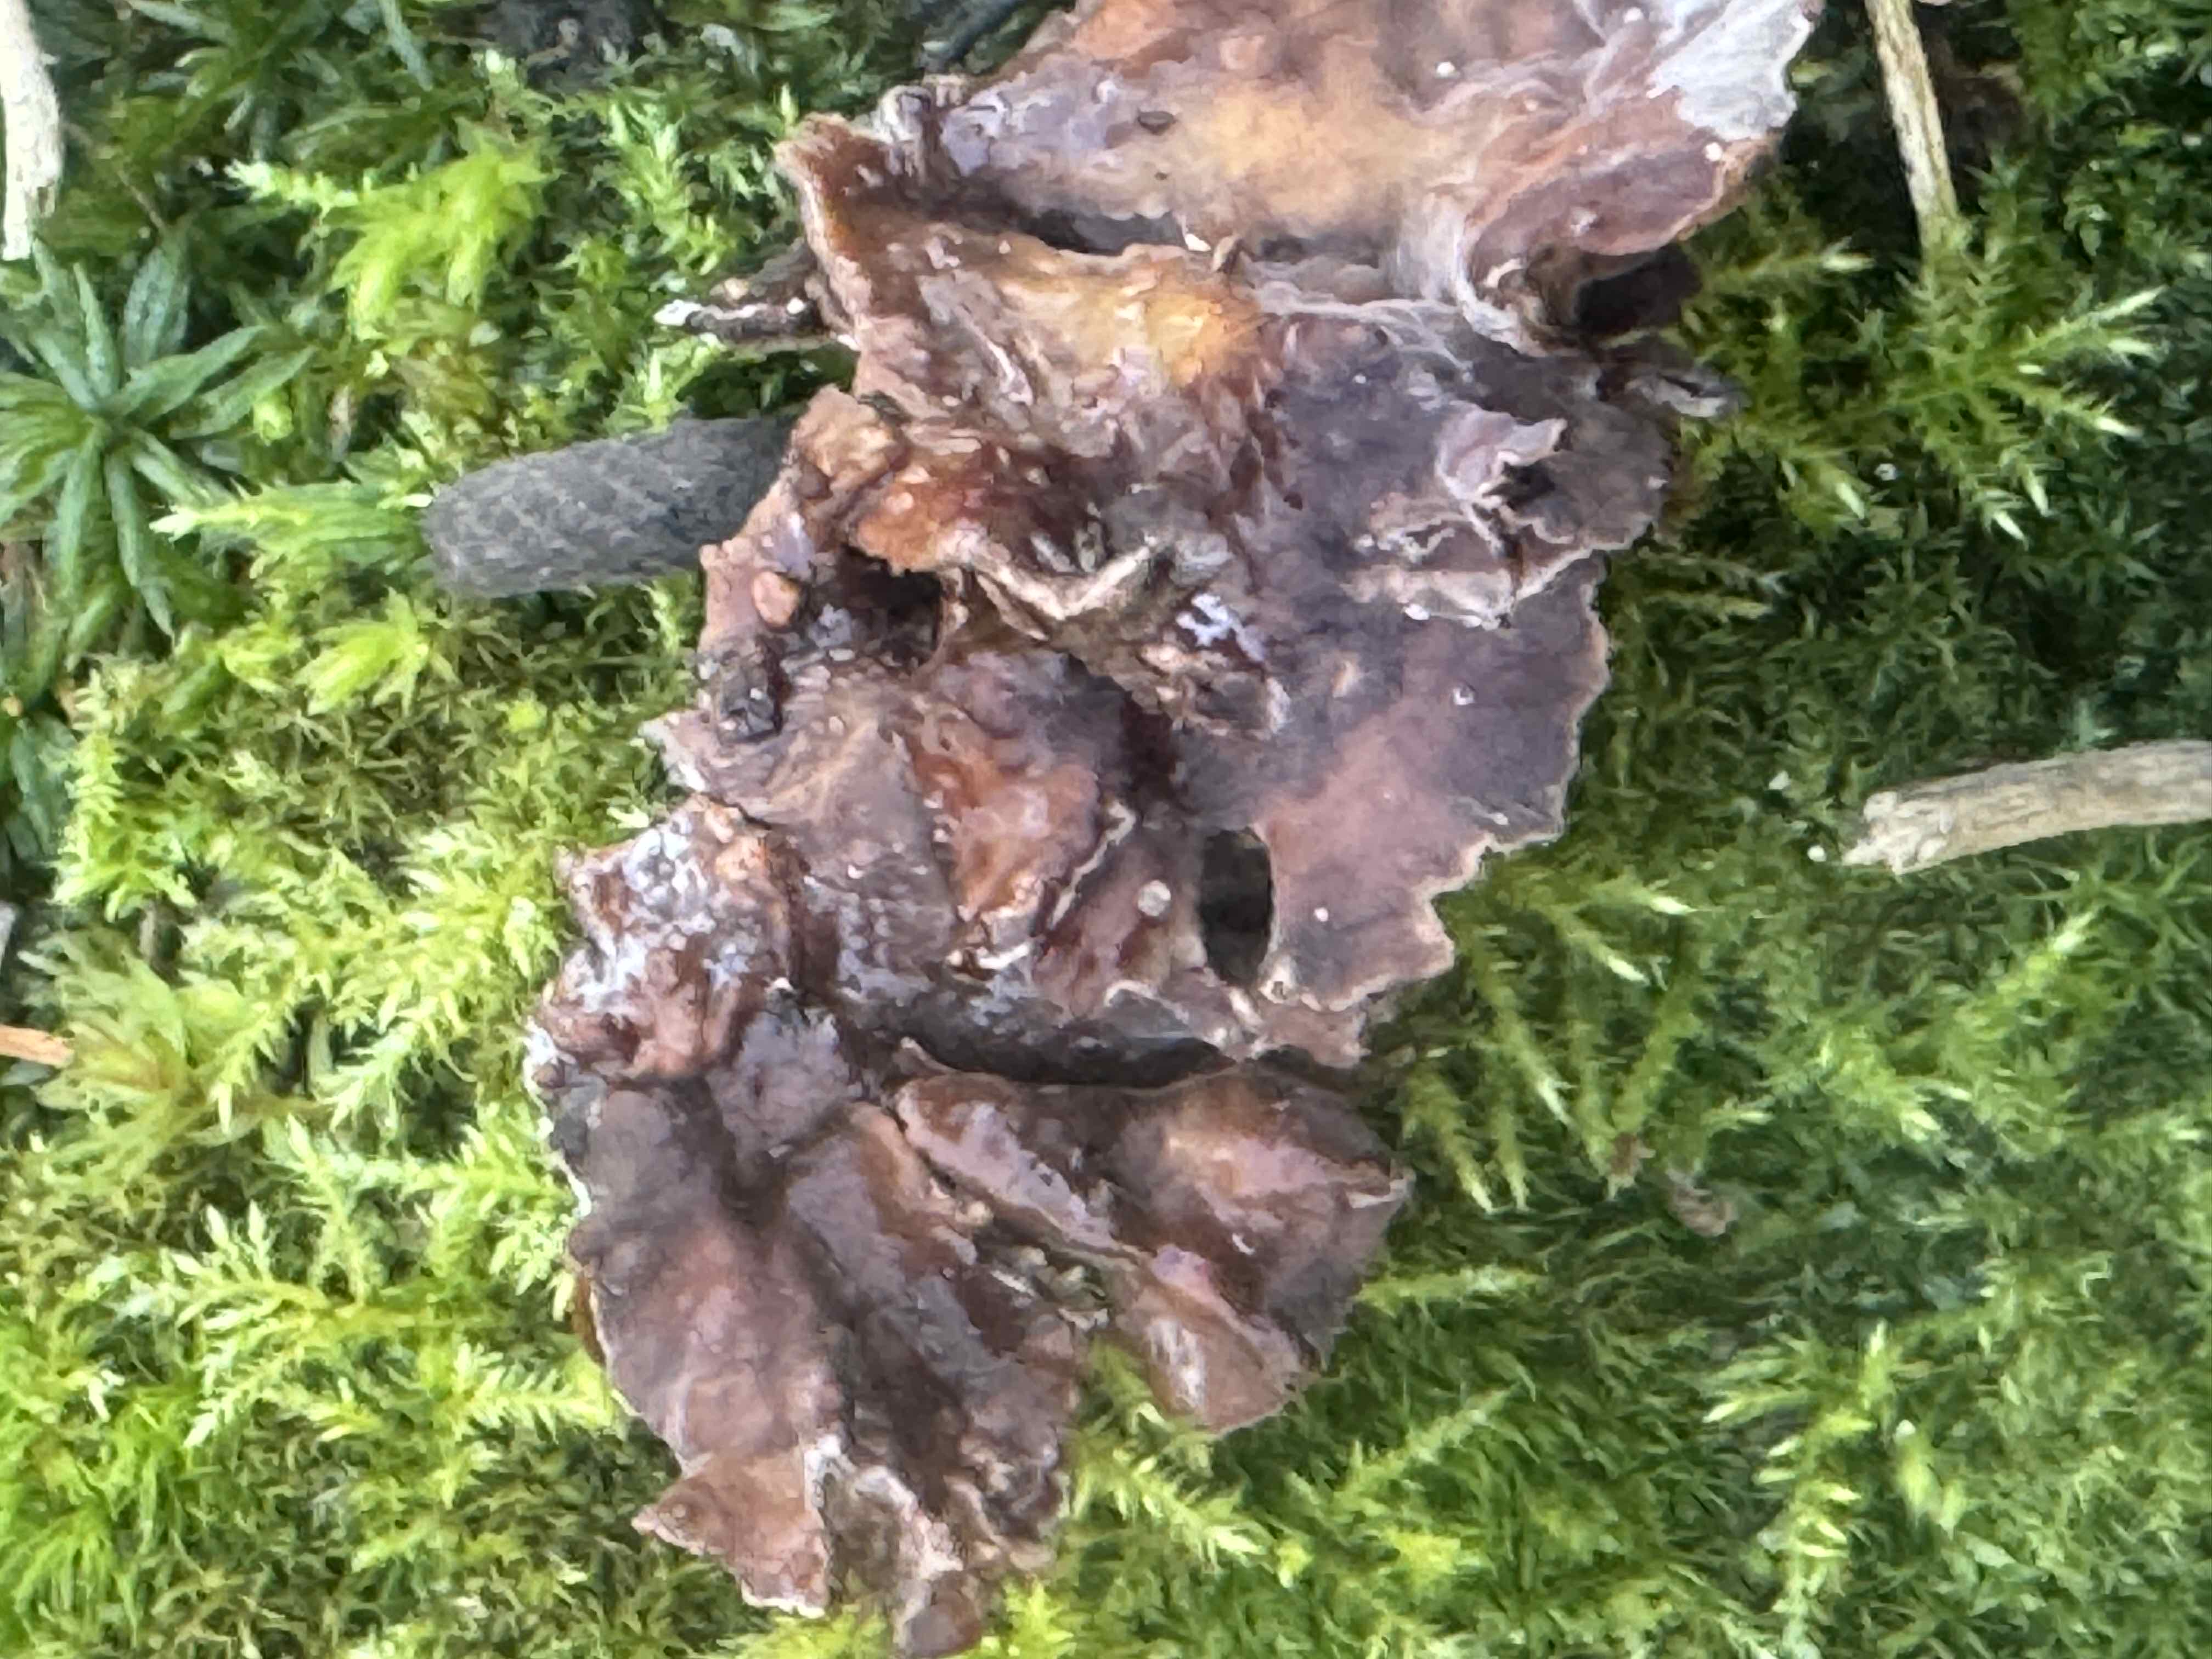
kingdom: Fungi
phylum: Basidiomycota
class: Agaricomycetes
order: Agaricales
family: Cyphellaceae
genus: Chondrostereum
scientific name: Chondrostereum purpureum
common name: purpurlædersvamp
